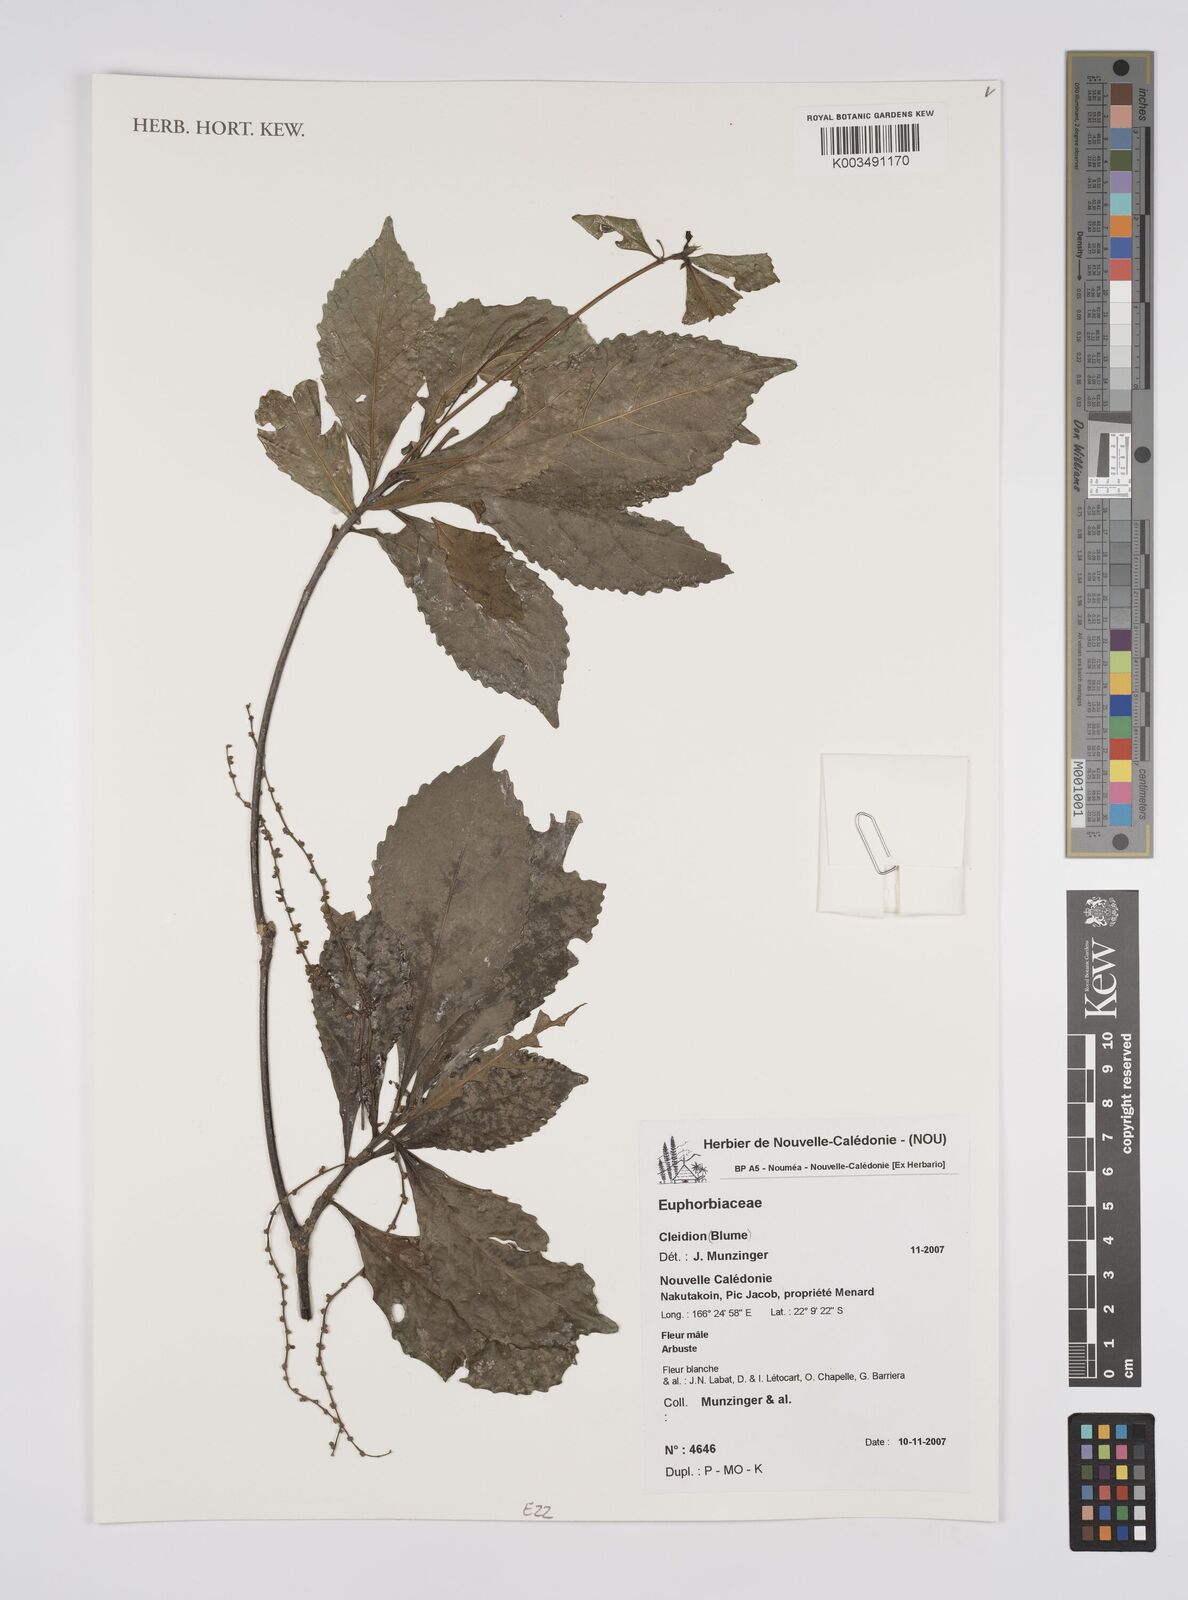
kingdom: Plantae
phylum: Tracheophyta
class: Magnoliopsida
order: Malpighiales
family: Euphorbiaceae
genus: Cleidion
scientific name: Cleidion
